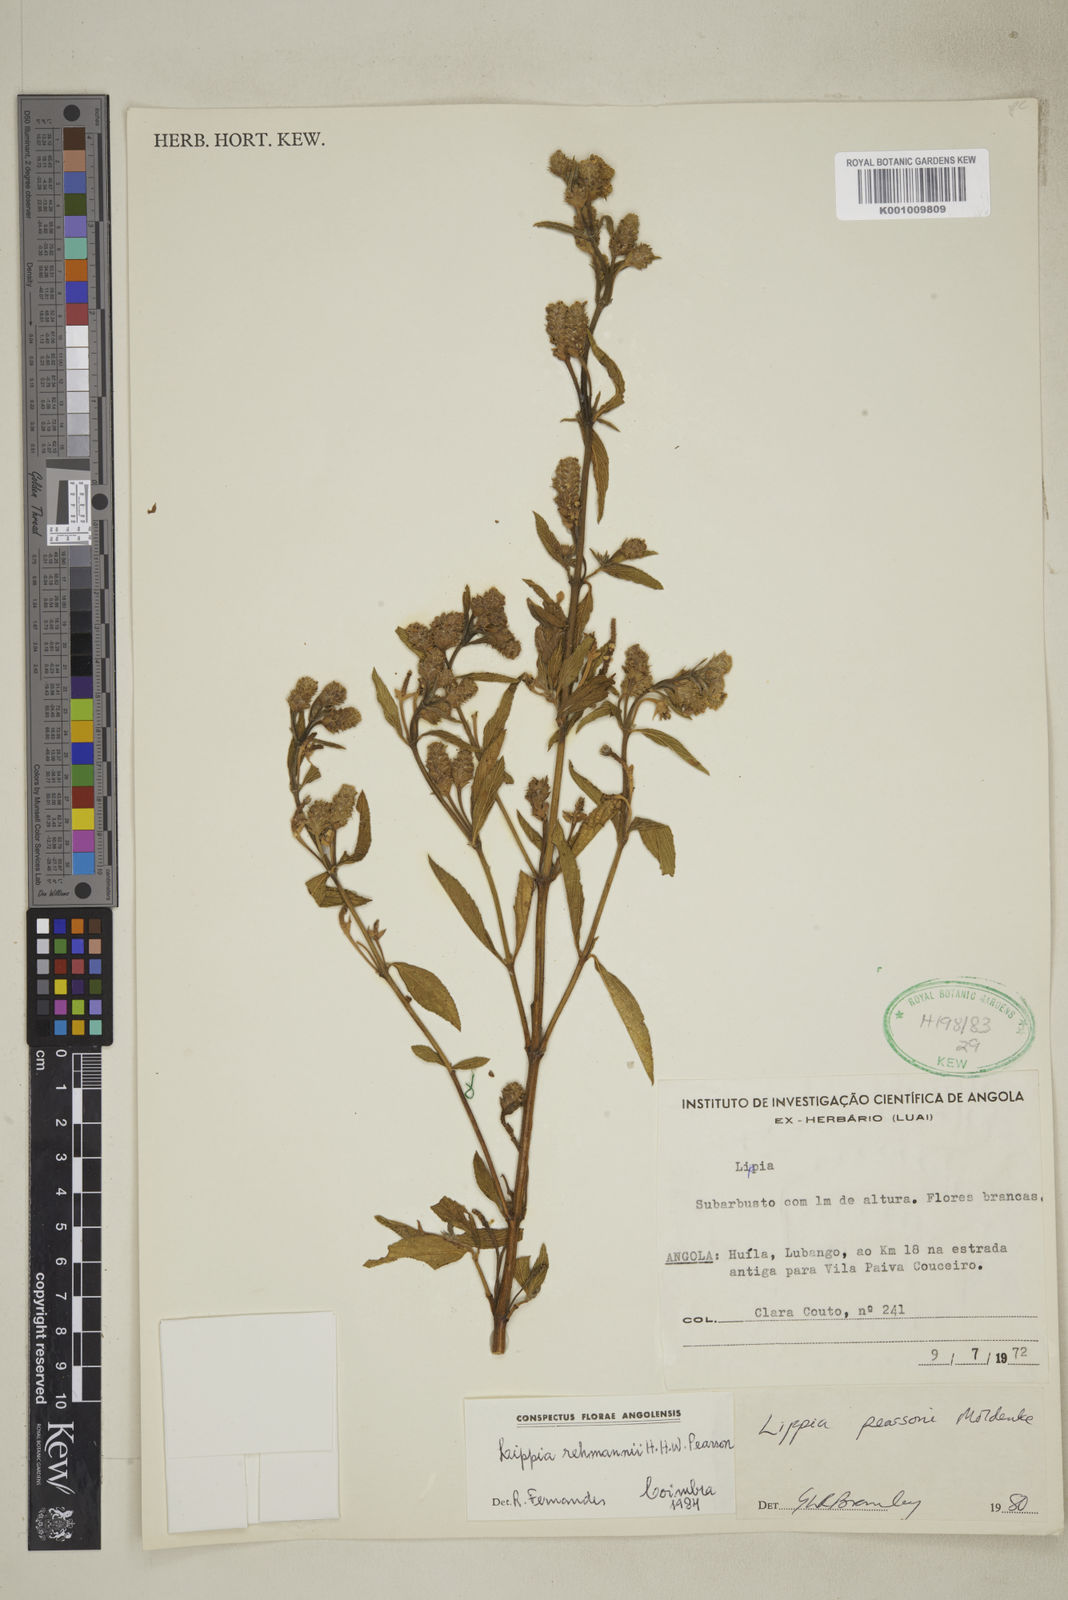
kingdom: Plantae
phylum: Tracheophyta
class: Magnoliopsida
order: Lamiales
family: Verbenaceae
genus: Lippia
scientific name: Lippia rehmannii
